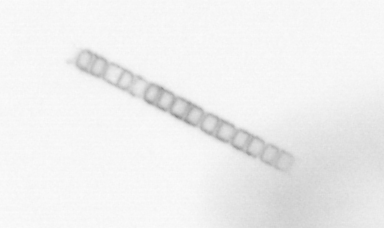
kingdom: Chromista
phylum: Ochrophyta
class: Bacillariophyceae
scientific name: Bacillariophyceae
